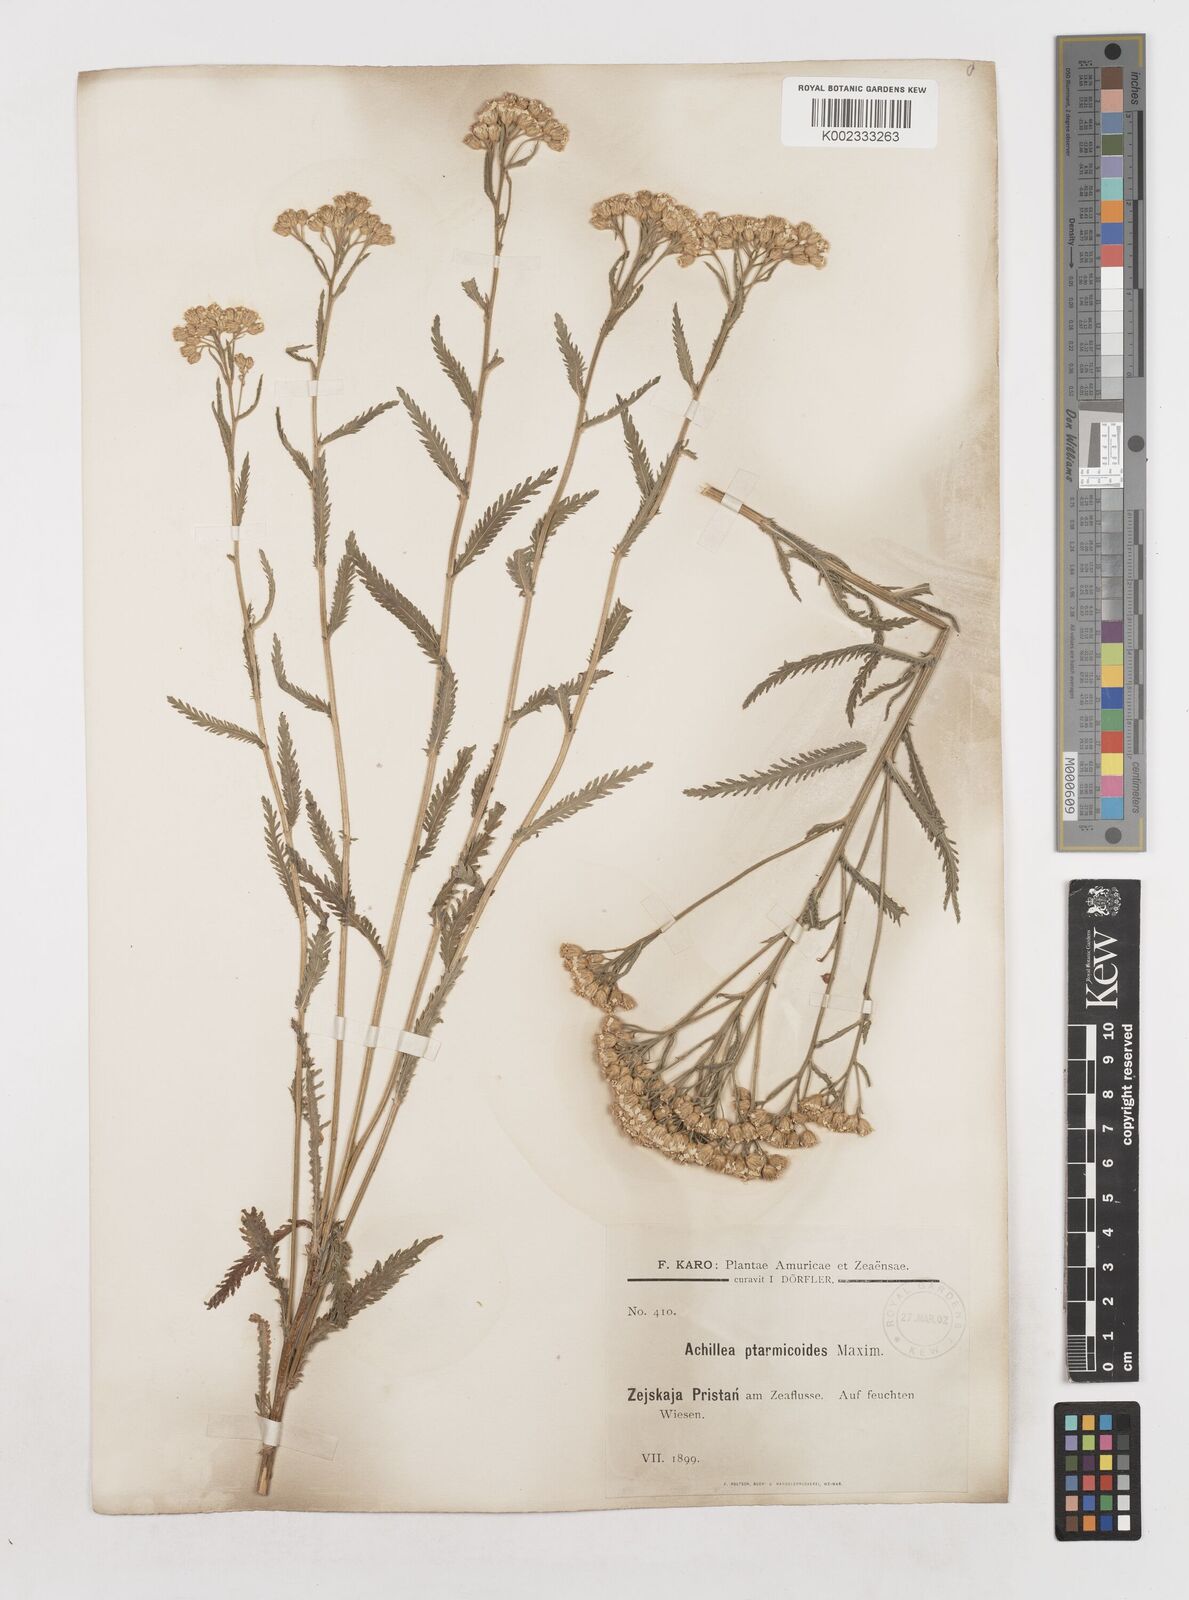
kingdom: Plantae
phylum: Tracheophyta
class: Magnoliopsida
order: Asterales
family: Asteraceae
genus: Achillea
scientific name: Achillea ptarmicoides
